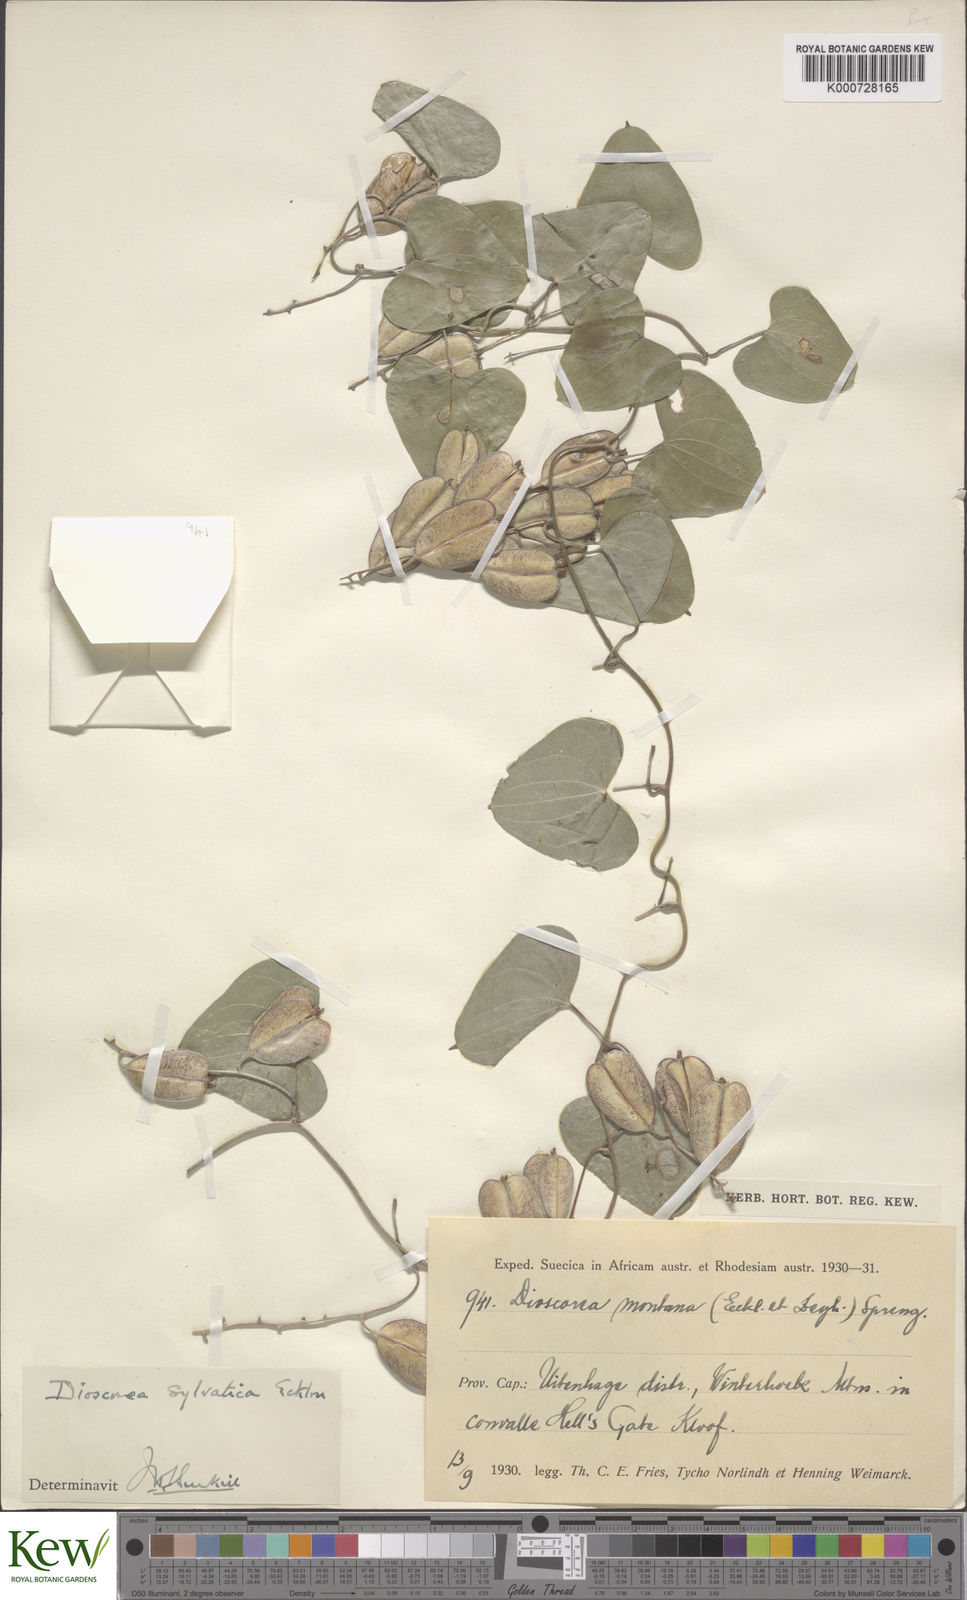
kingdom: Plantae
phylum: Tracheophyta
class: Liliopsida
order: Dioscoreales
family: Dioscoreaceae
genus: Dioscorea
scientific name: Dioscorea sylvatica
